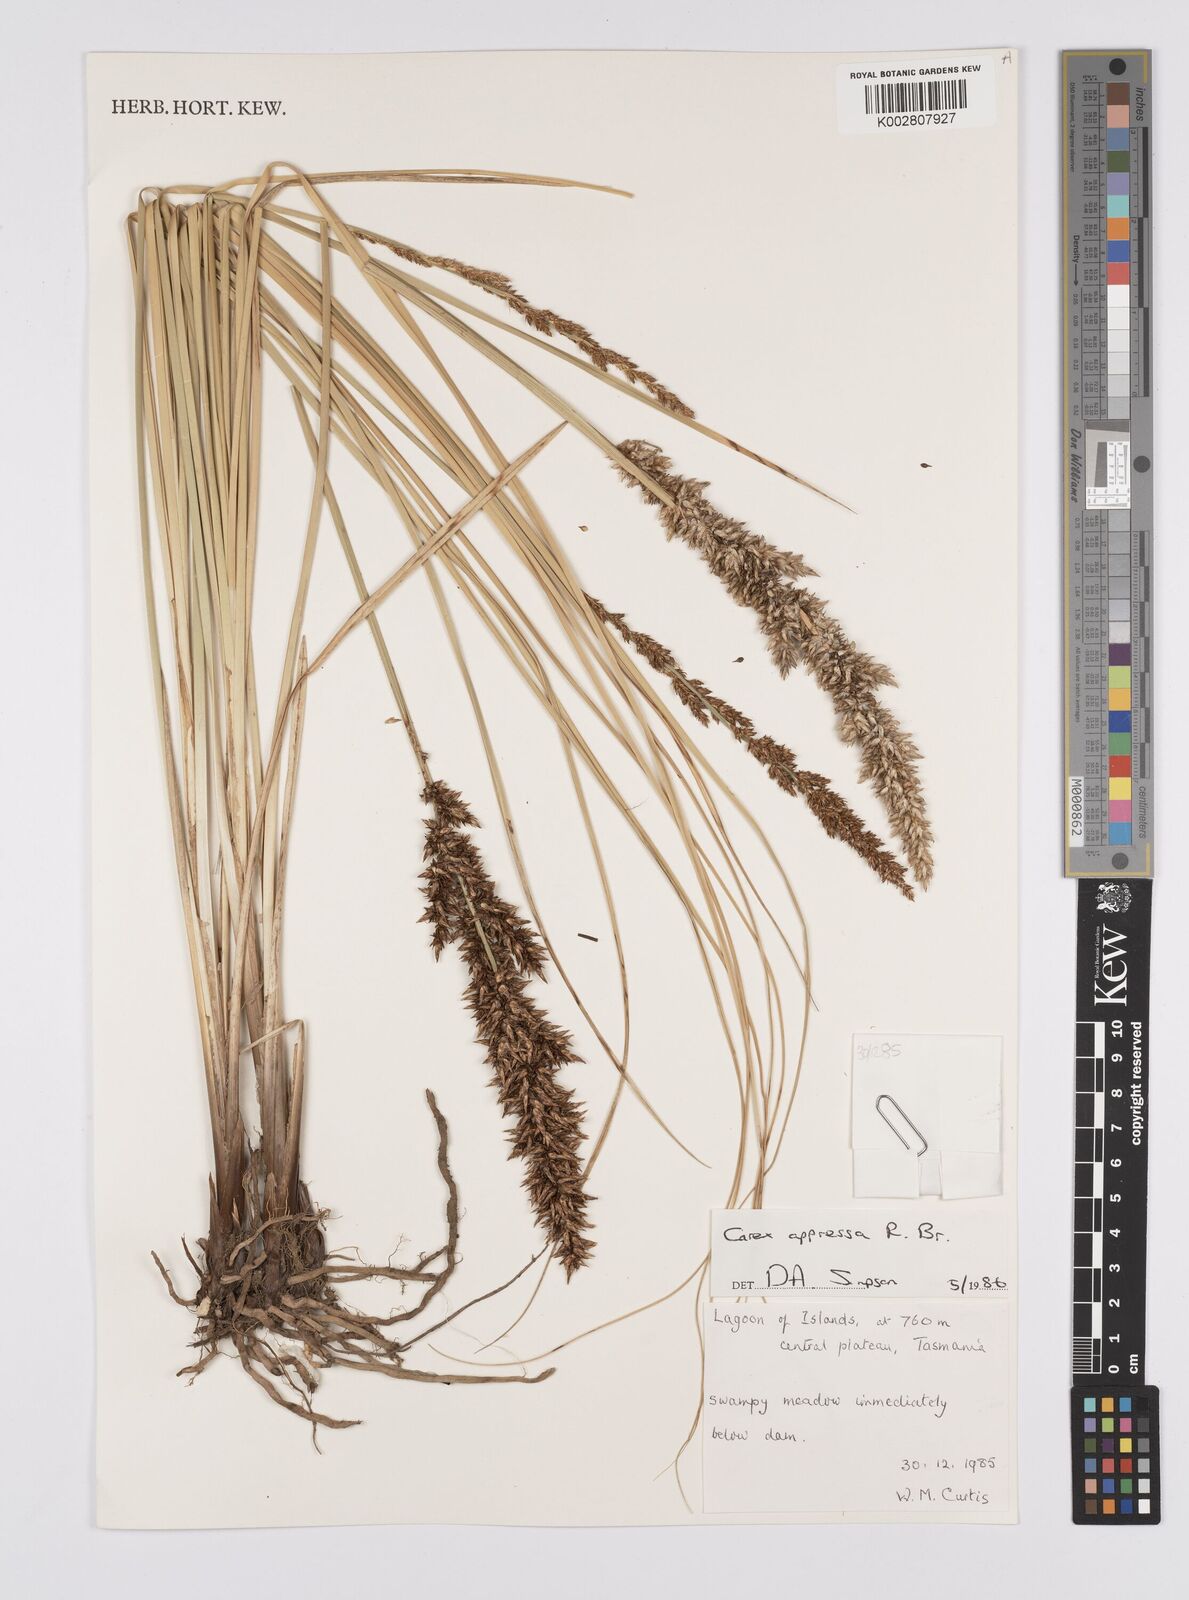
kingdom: Plantae
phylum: Tracheophyta
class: Liliopsida
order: Poales
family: Cyperaceae
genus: Carex
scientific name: Carex appressa
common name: Tussock sedge
